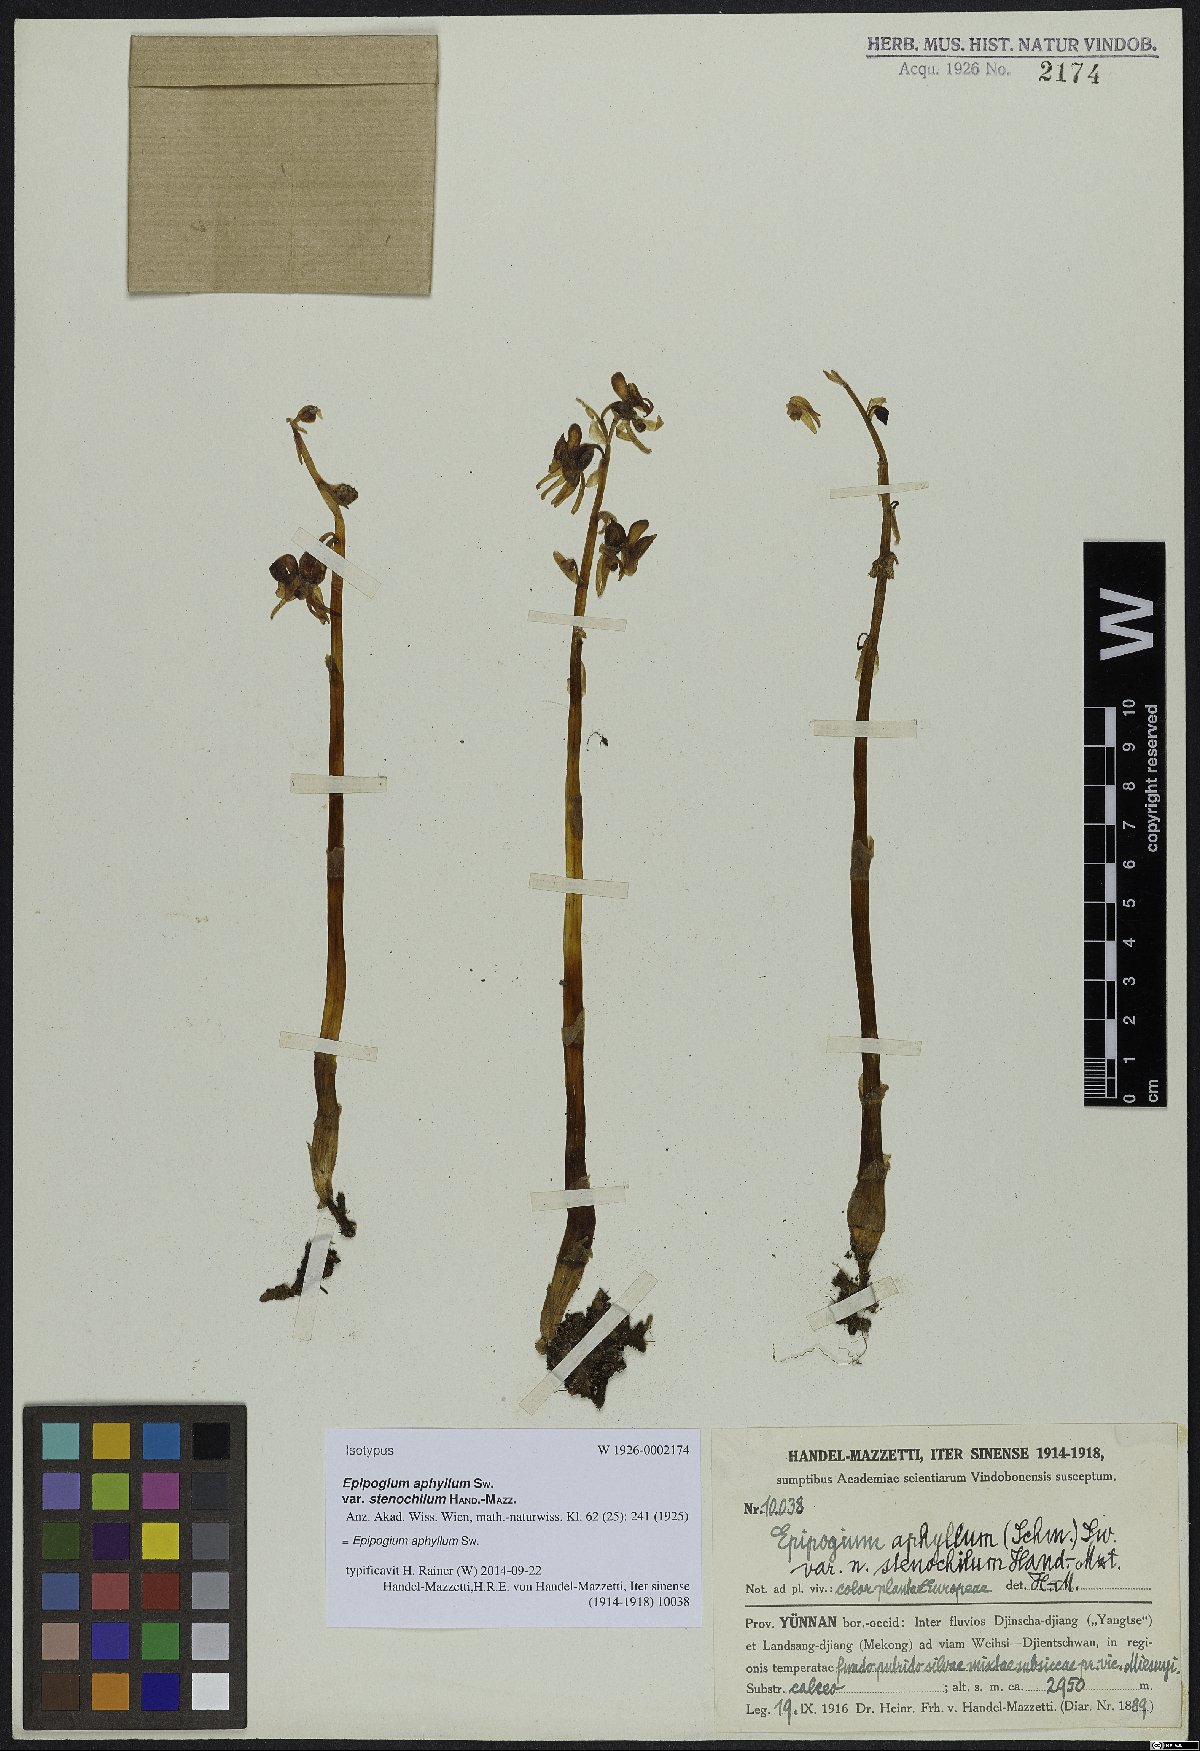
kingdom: Plantae
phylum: Tracheophyta
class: Liliopsida
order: Asparagales
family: Orchidaceae
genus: Epipogium
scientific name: Epipogium aphyllum
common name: Ghost orchid
